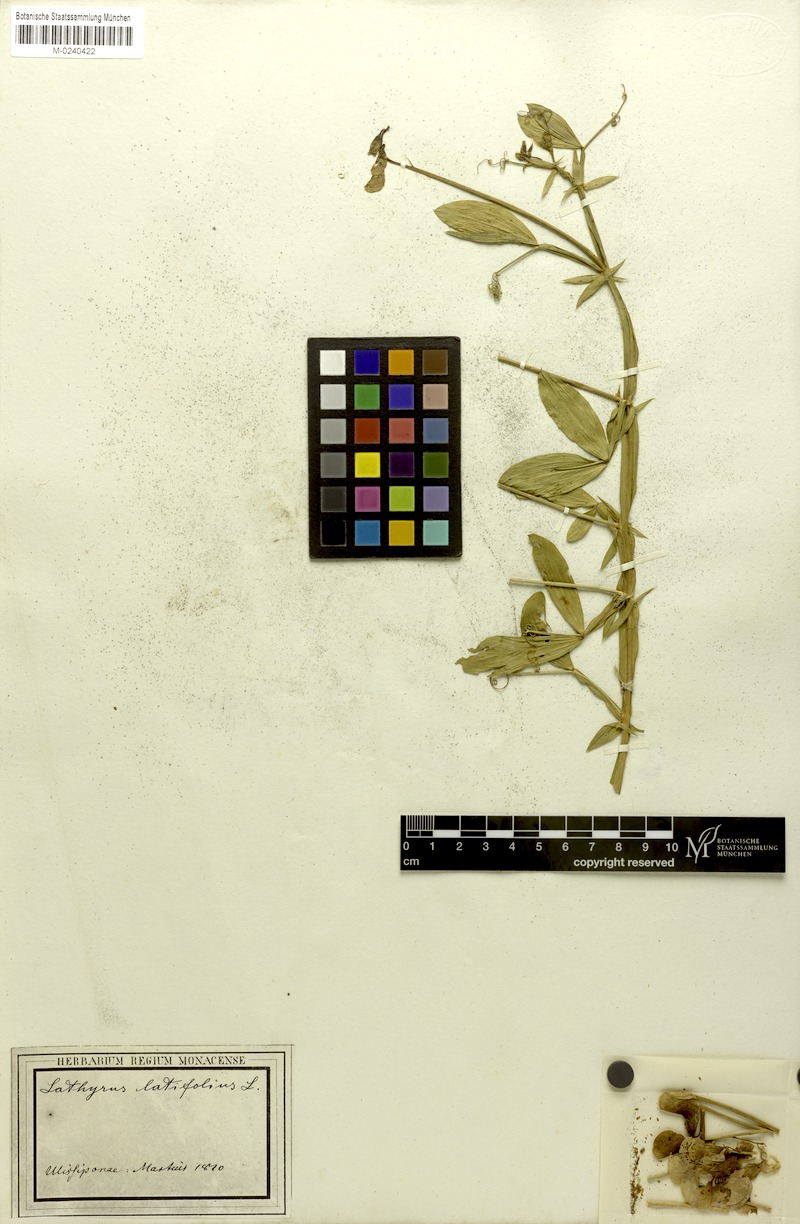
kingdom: Plantae
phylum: Tracheophyta
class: Magnoliopsida
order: Fabales
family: Fabaceae
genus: Lathyrus
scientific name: Lathyrus latifolius
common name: Perennial pea
